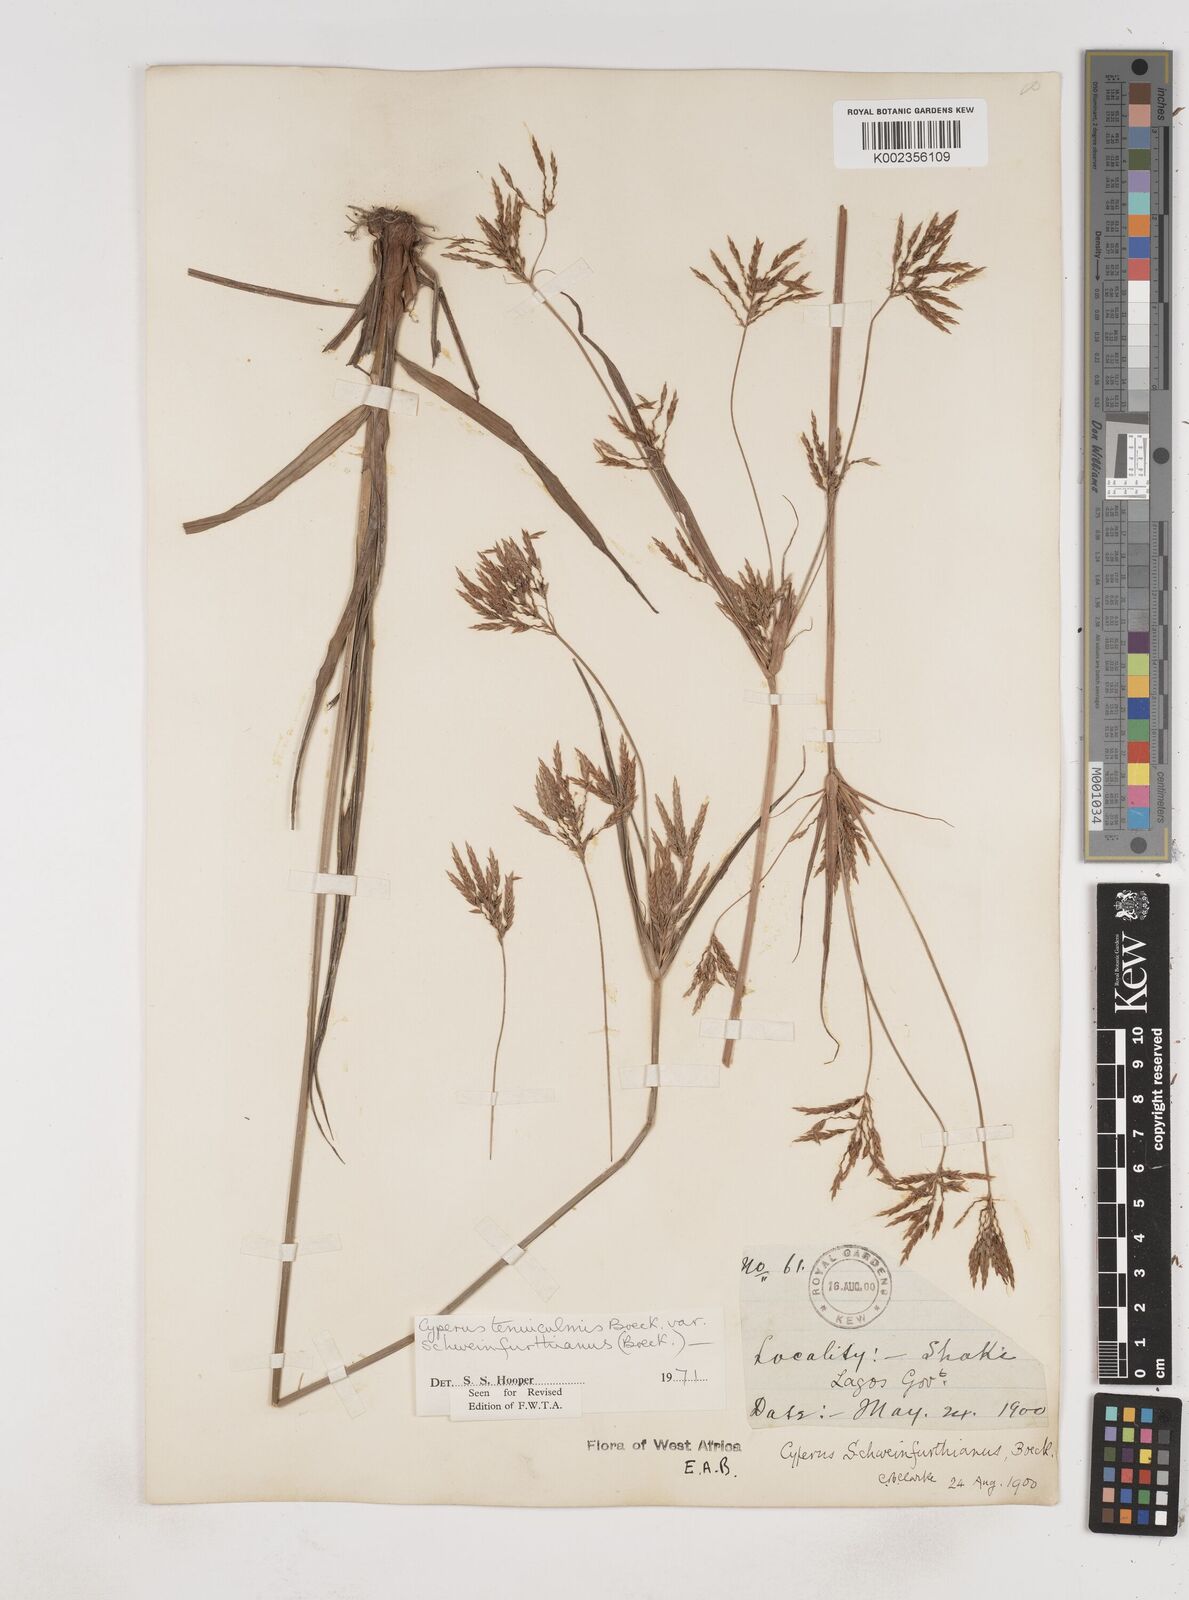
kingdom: Plantae
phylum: Tracheophyta
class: Liliopsida
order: Poales
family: Cyperaceae
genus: Cyperus
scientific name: Cyperus tenuiculmis
